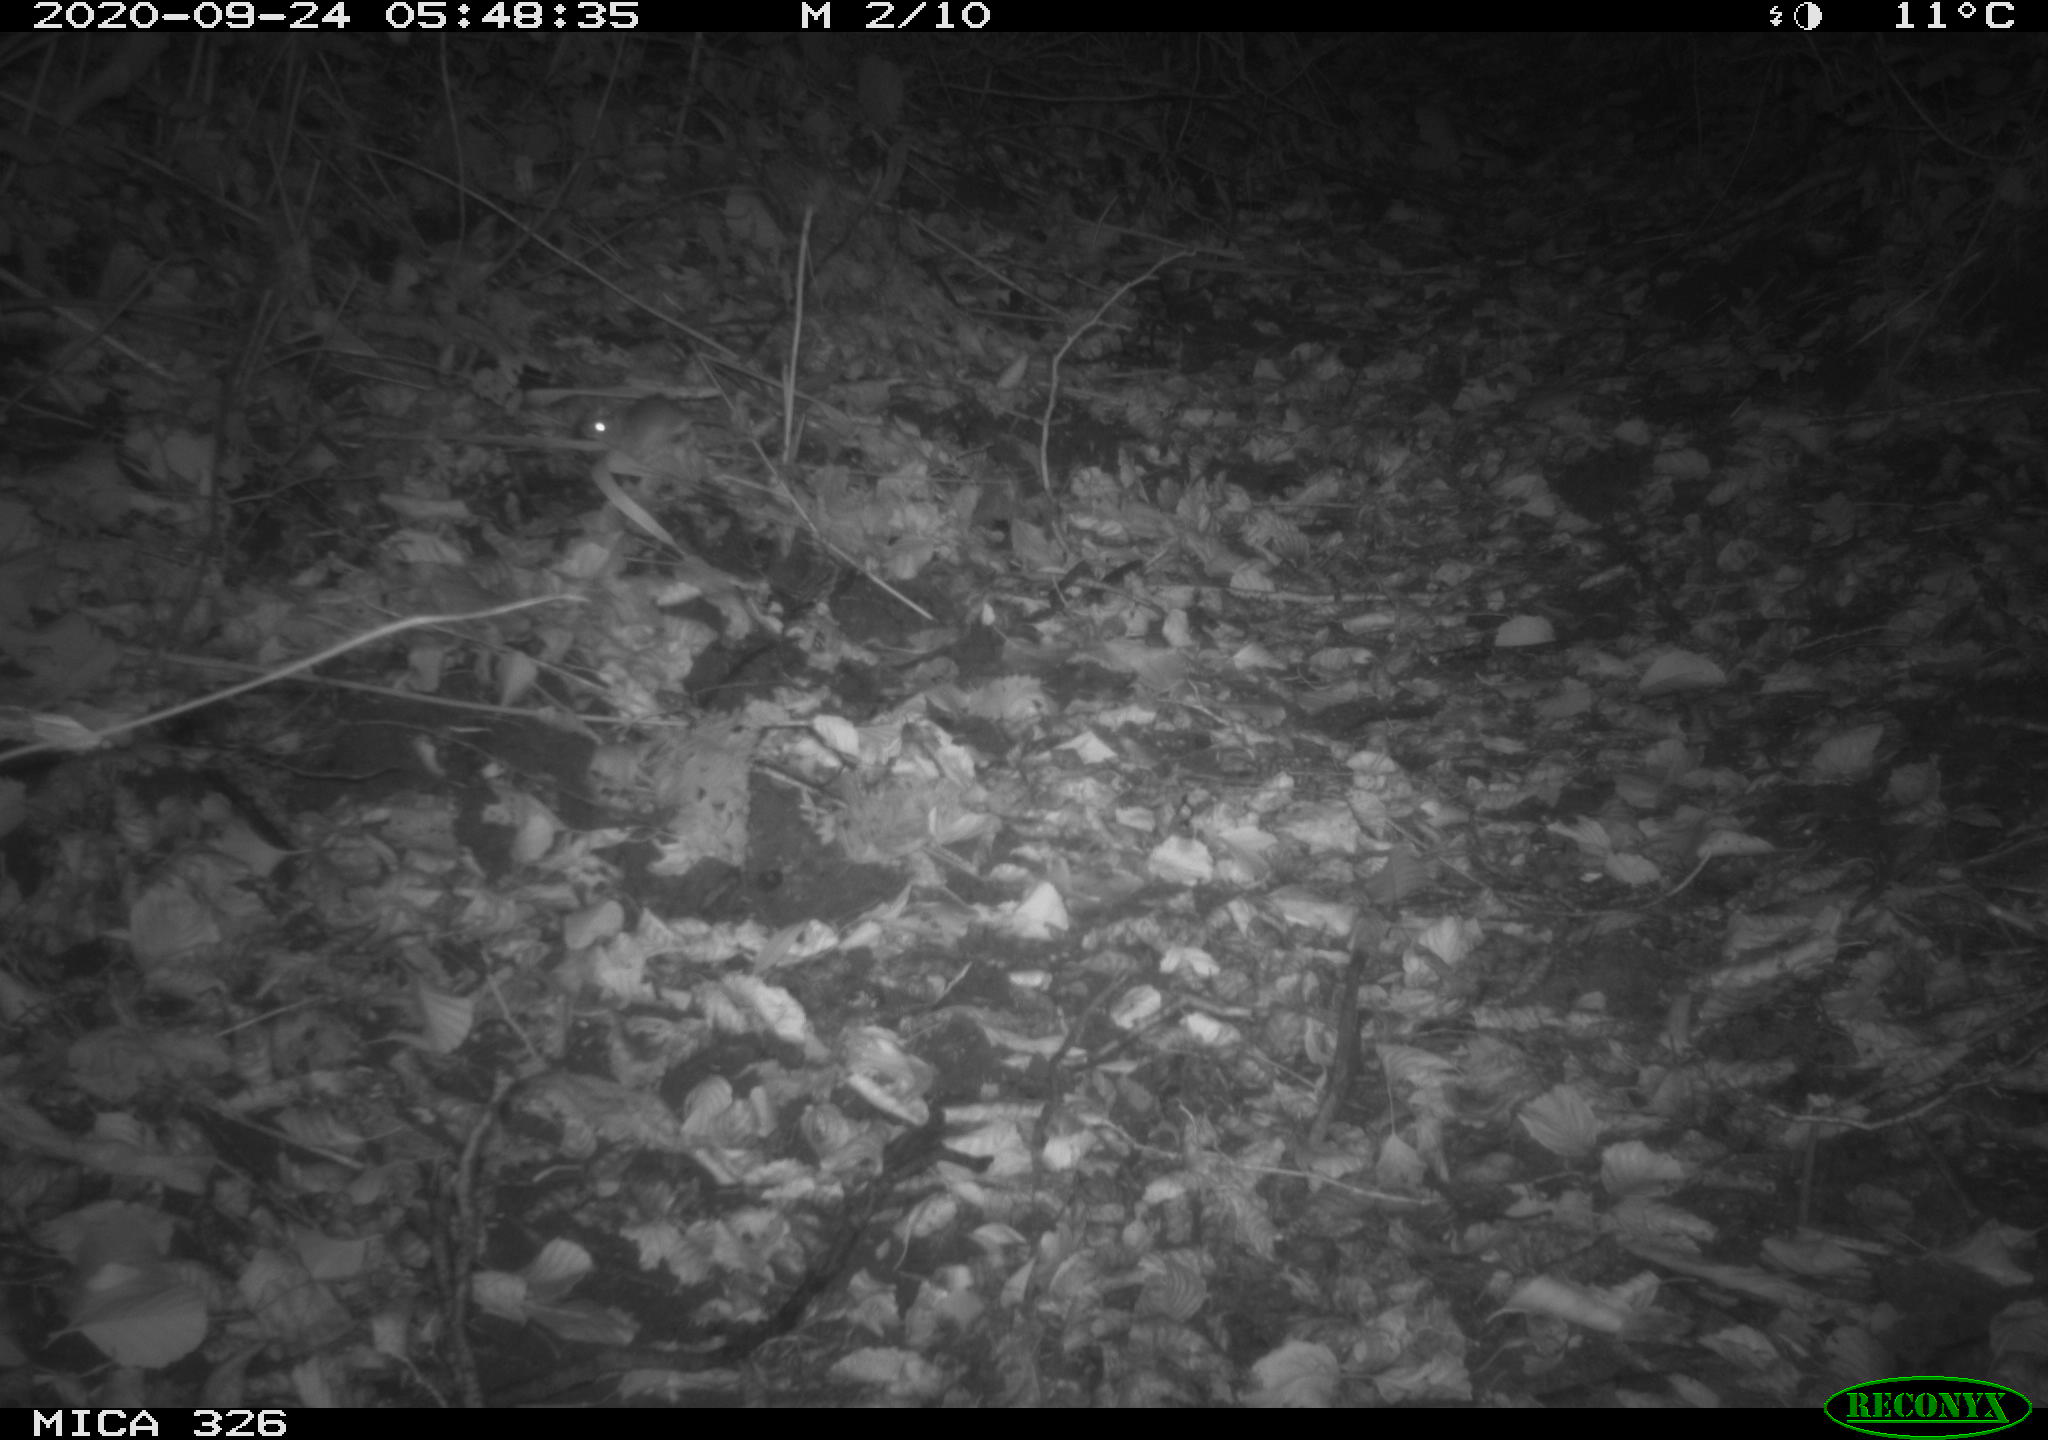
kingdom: Animalia
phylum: Chordata
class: Mammalia
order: Rodentia
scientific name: Rodentia
